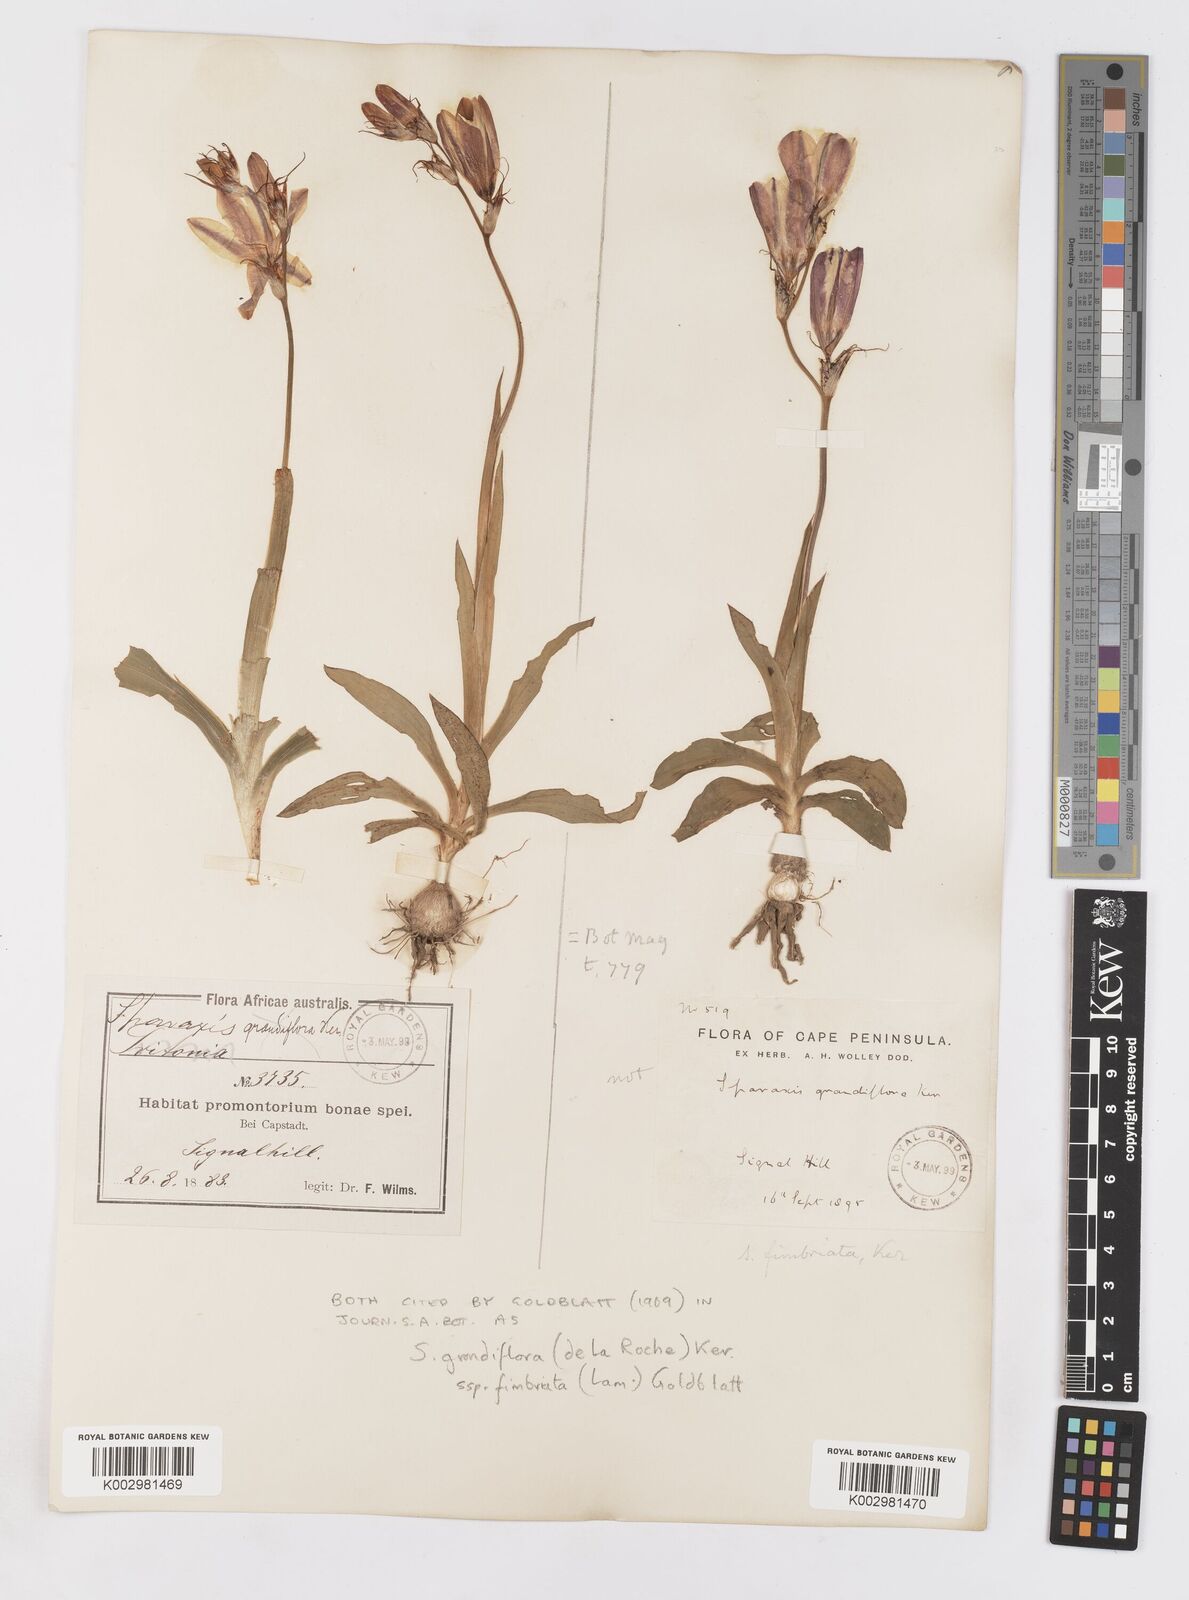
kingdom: Plantae
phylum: Tracheophyta
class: Liliopsida
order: Asparagales
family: Iridaceae
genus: Sparaxis
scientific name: Sparaxis grandiflora
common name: Plain harlequin-flower
